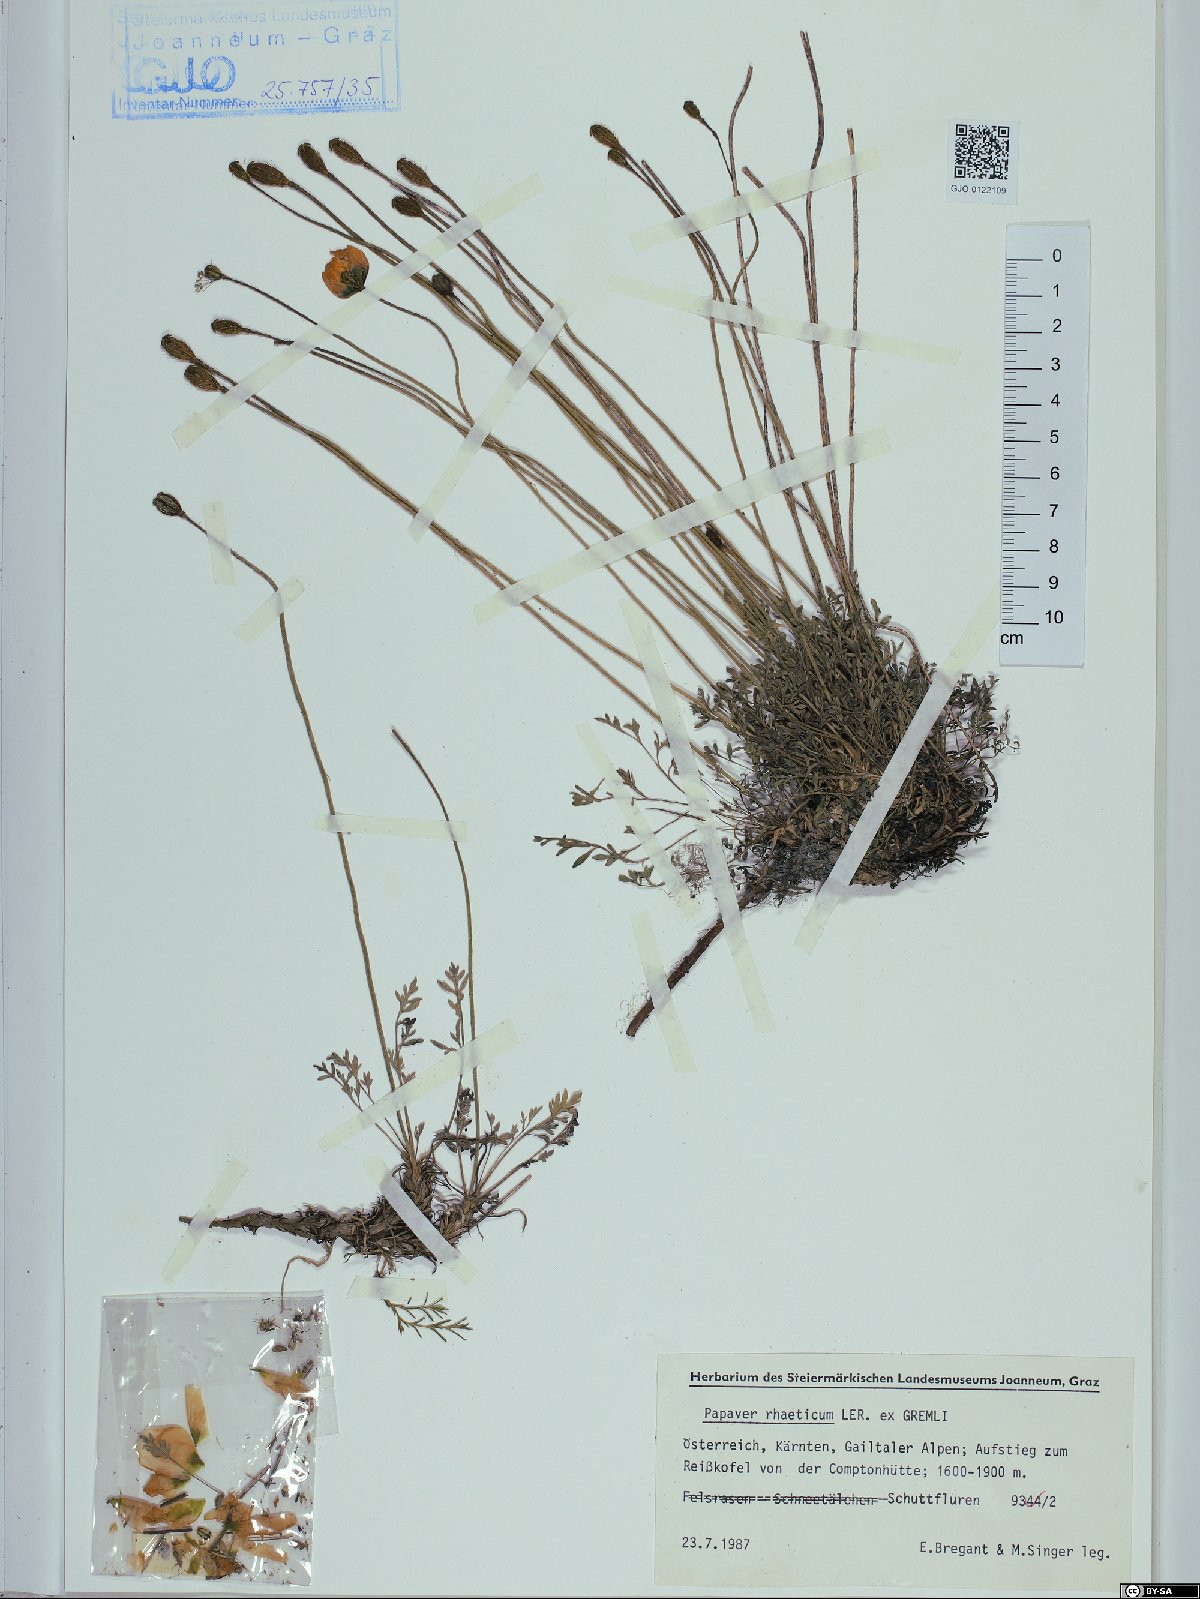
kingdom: Plantae
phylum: Tracheophyta
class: Magnoliopsida
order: Ranunculales
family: Papaveraceae
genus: Papaver
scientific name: Papaver alpinum
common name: Austrian poppy
